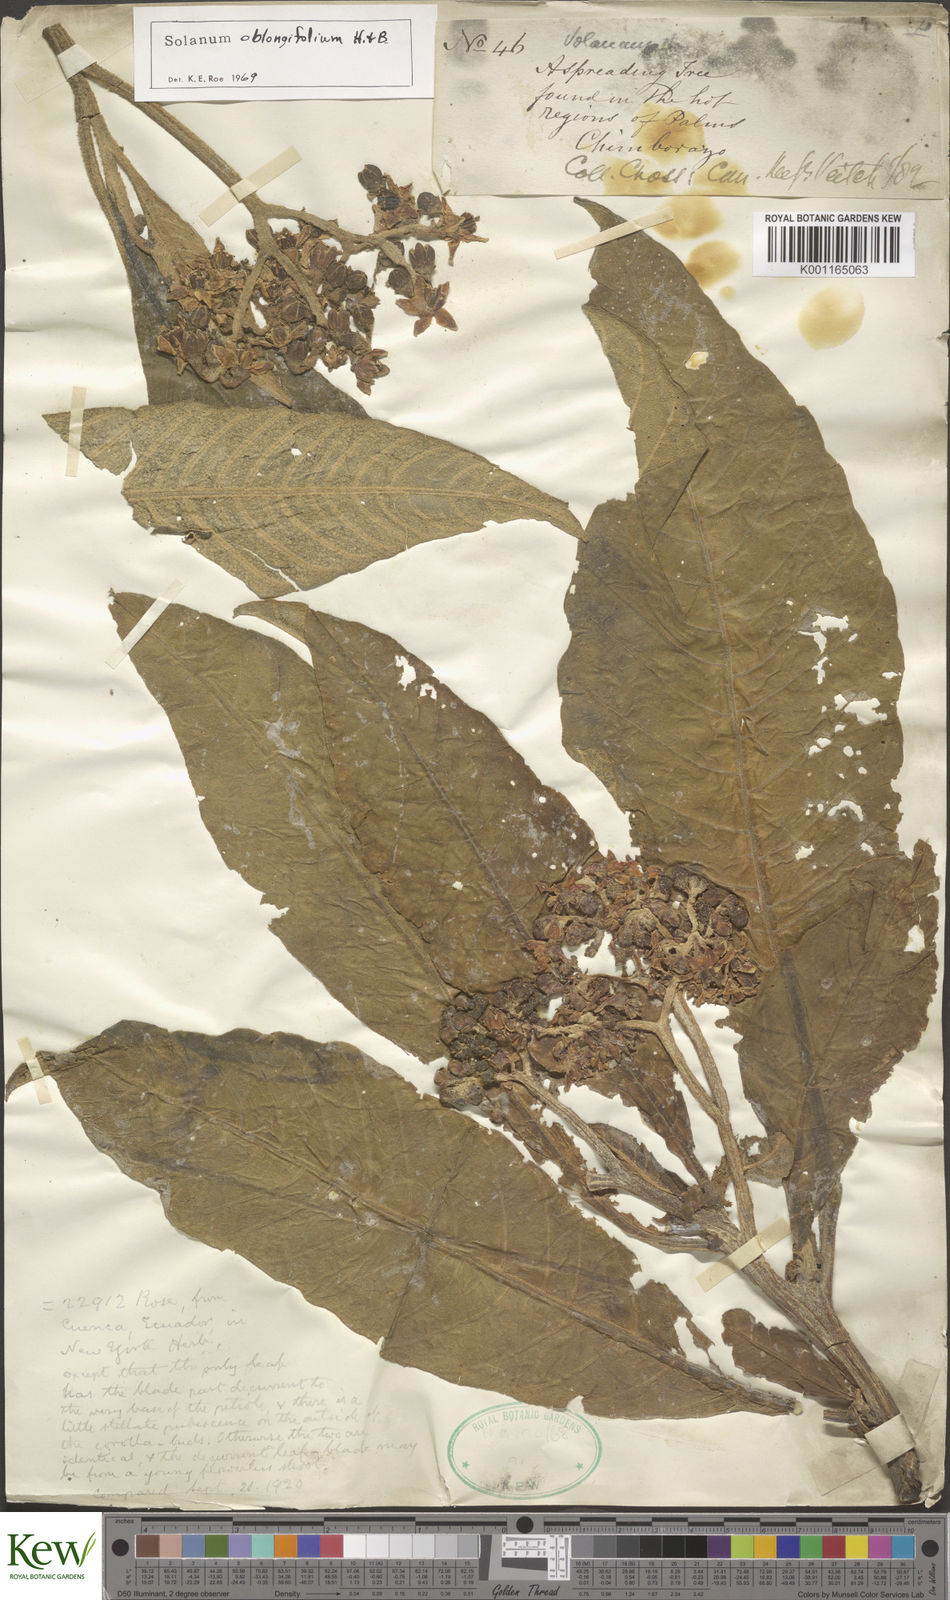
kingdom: Plantae
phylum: Tracheophyta
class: Magnoliopsida
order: Solanales
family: Solanaceae
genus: Solanum
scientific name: Solanum oblongifolium
